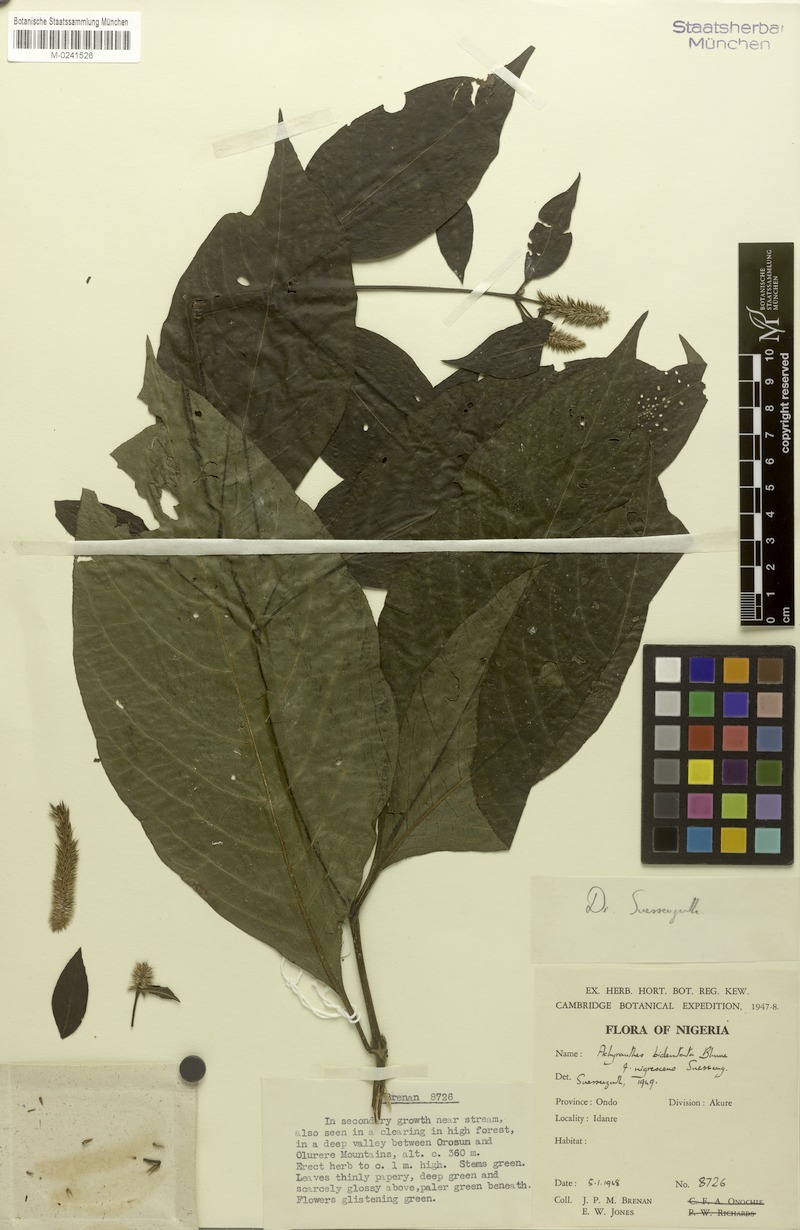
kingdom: Plantae
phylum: Tracheophyta
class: Magnoliopsida
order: Caryophyllales
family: Amaranthaceae
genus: Achyranthes
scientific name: Achyranthes bidentata
